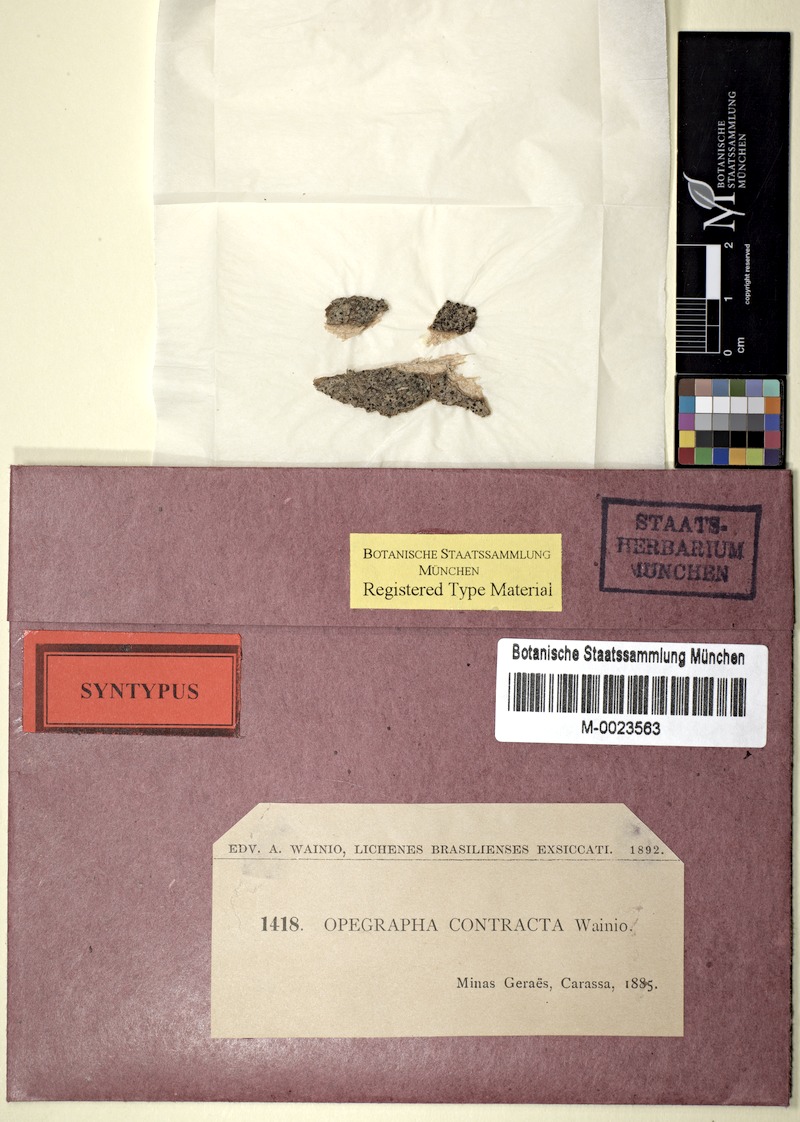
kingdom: Fungi
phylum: Ascomycota
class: Arthoniomycetes
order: Arthoniales
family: Opegraphaceae
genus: Opegrapha
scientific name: Opegrapha contracta
